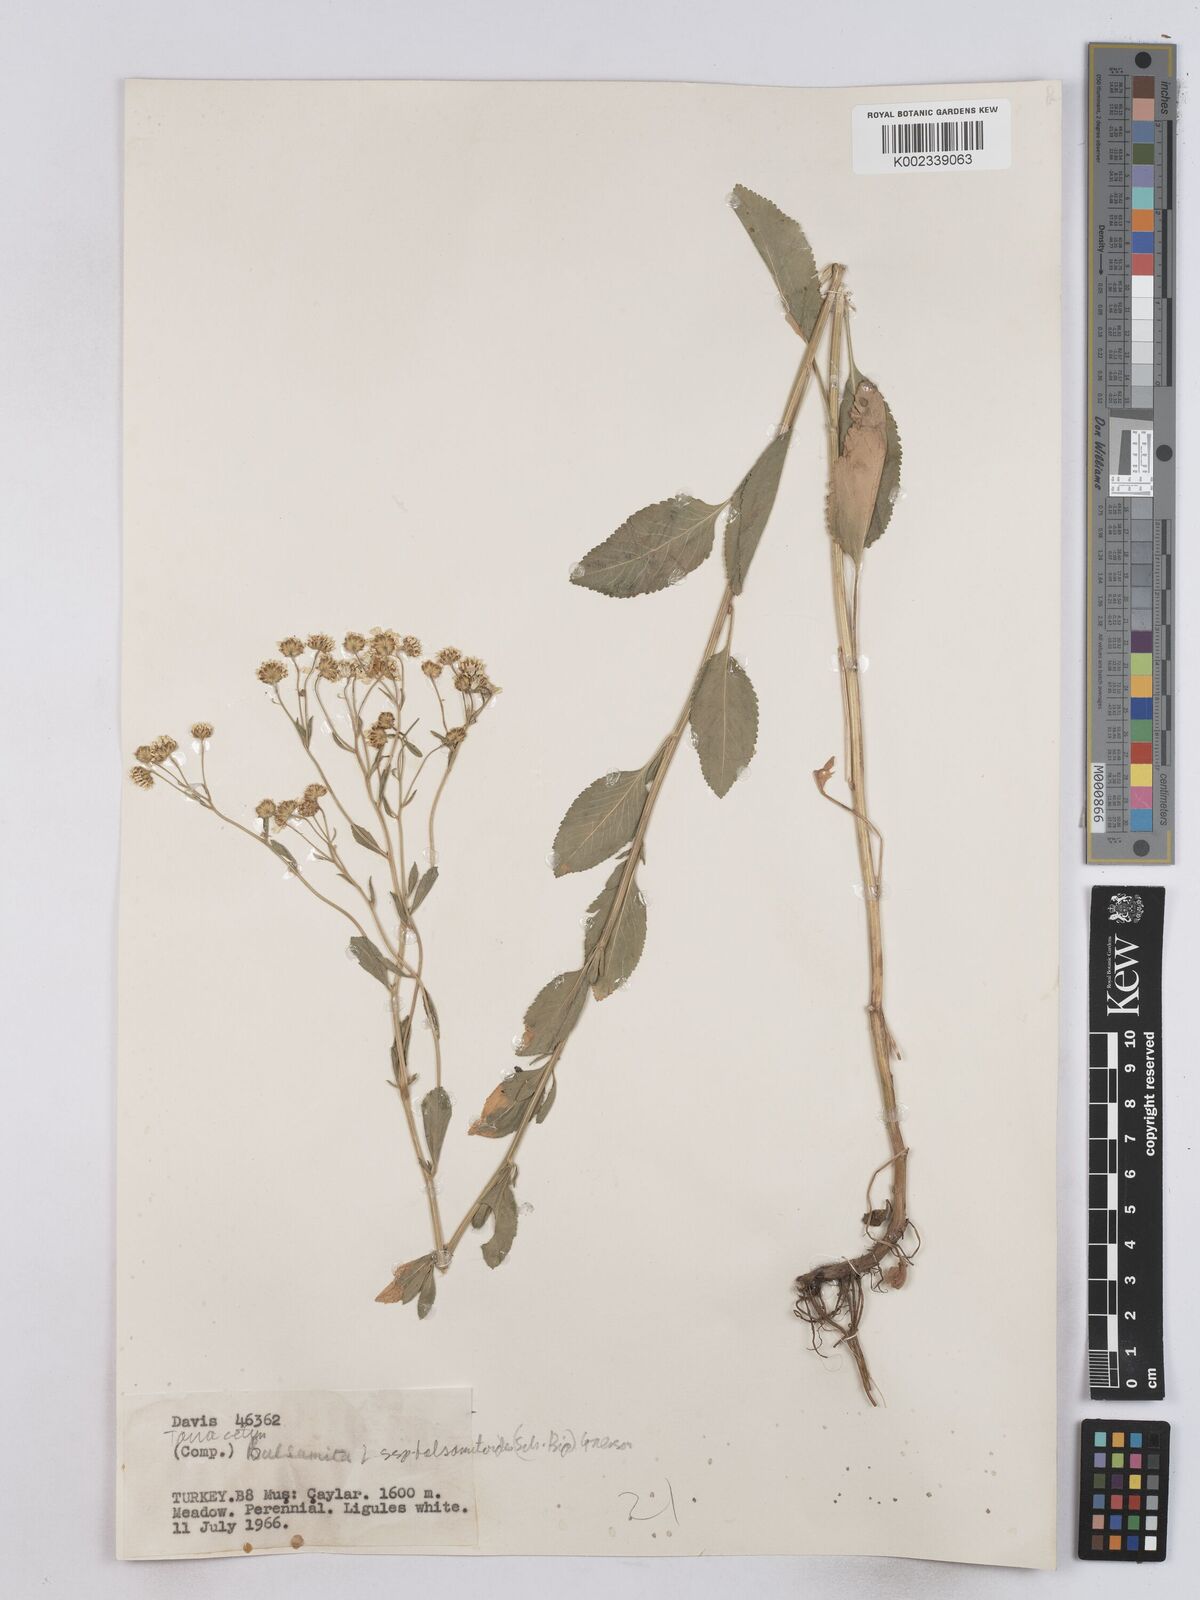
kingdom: Plantae
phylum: Tracheophyta
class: Magnoliopsida
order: Asterales
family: Asteraceae
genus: Tanacetum
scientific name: Tanacetum balsamita
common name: Costmary
